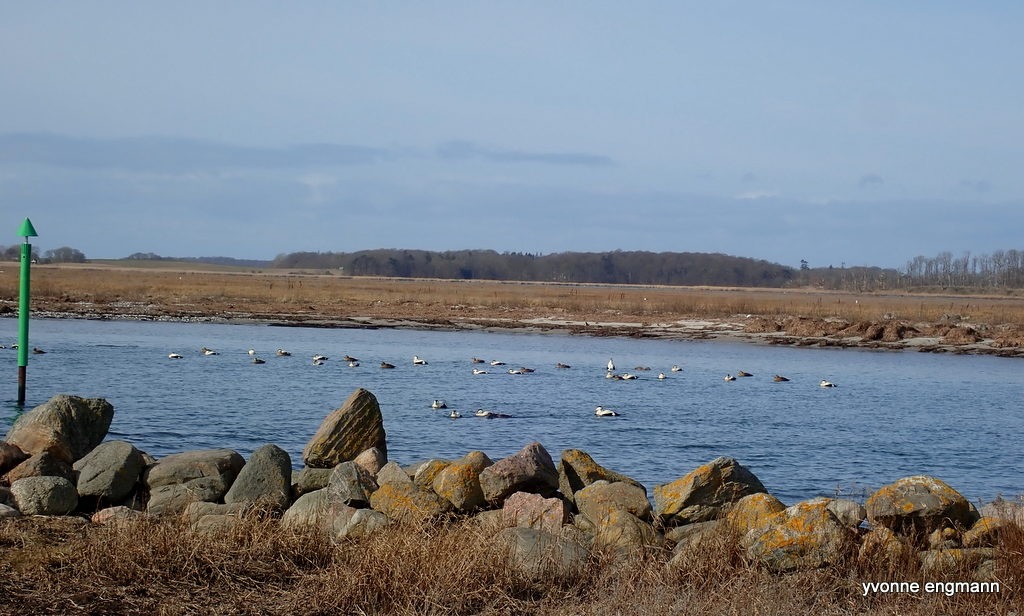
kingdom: Animalia
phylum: Chordata
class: Aves
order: Anseriformes
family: Anatidae
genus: Somateria
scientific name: Somateria mollissima
